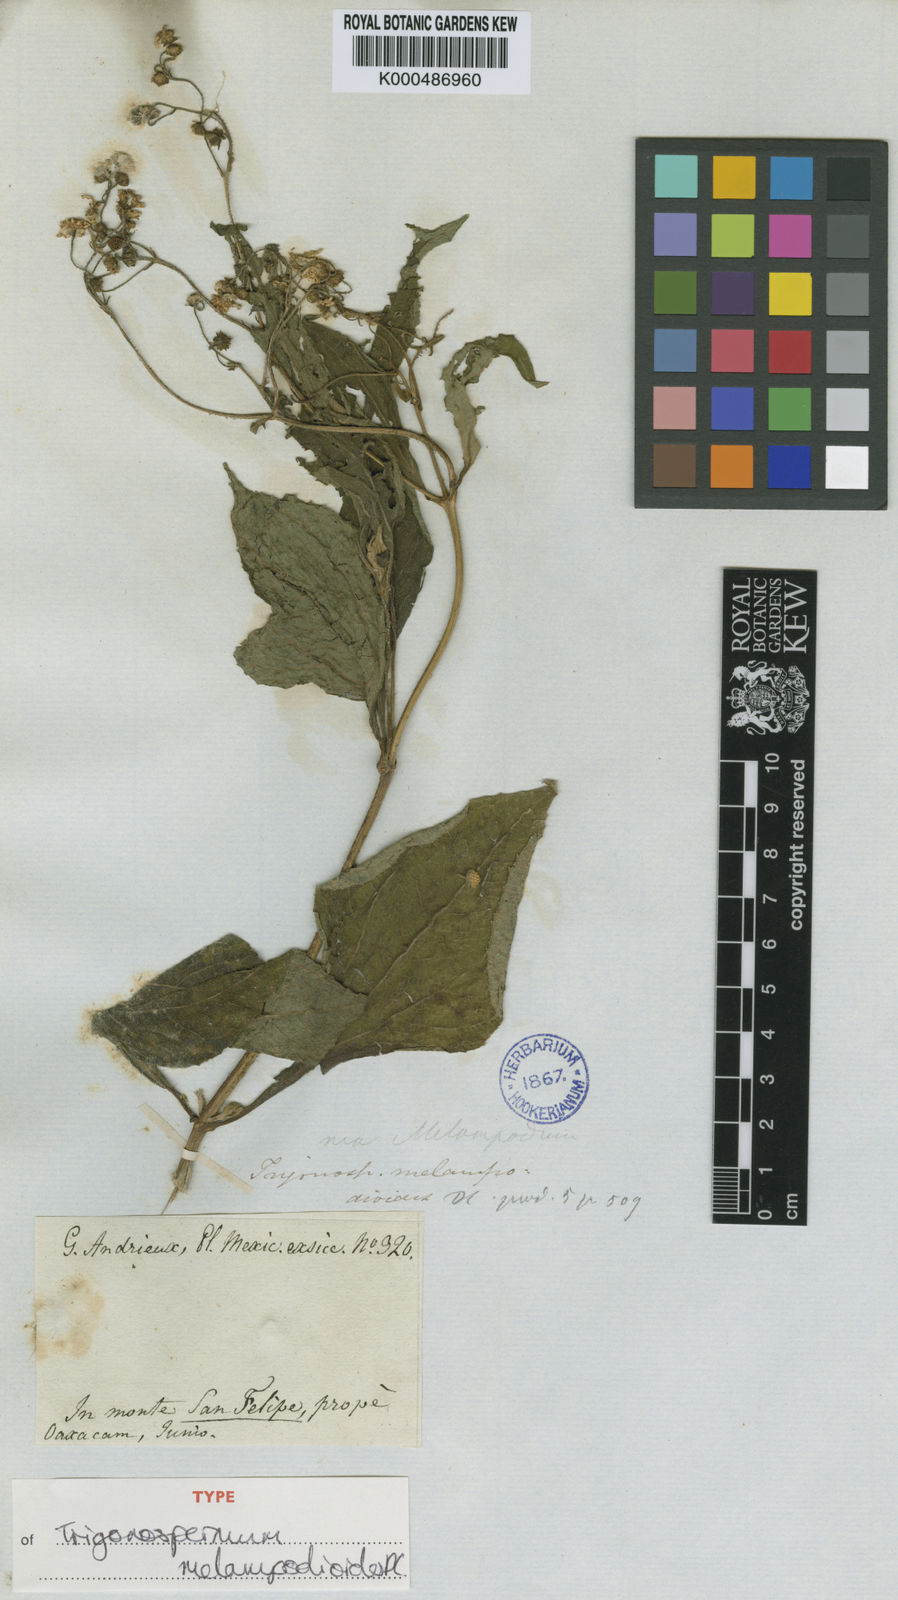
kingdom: Plantae
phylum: Tracheophyta
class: Magnoliopsida
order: Asterales
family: Asteraceae
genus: Trigonospermum
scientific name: Trigonospermum melampodioides
